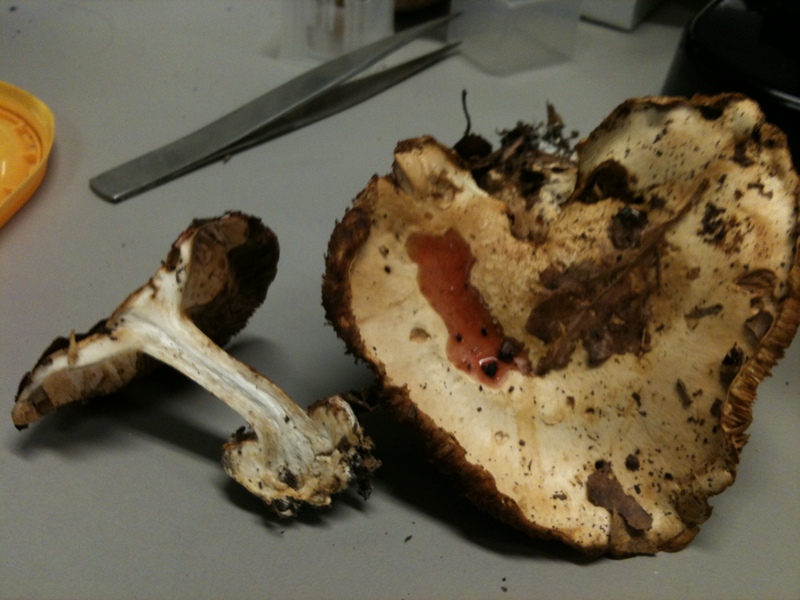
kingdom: Fungi
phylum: Basidiomycota
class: Agaricomycetes
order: Agaricales
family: Cortinariaceae
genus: Calonarius
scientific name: Calonarius langeorum
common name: Langes slørhat
